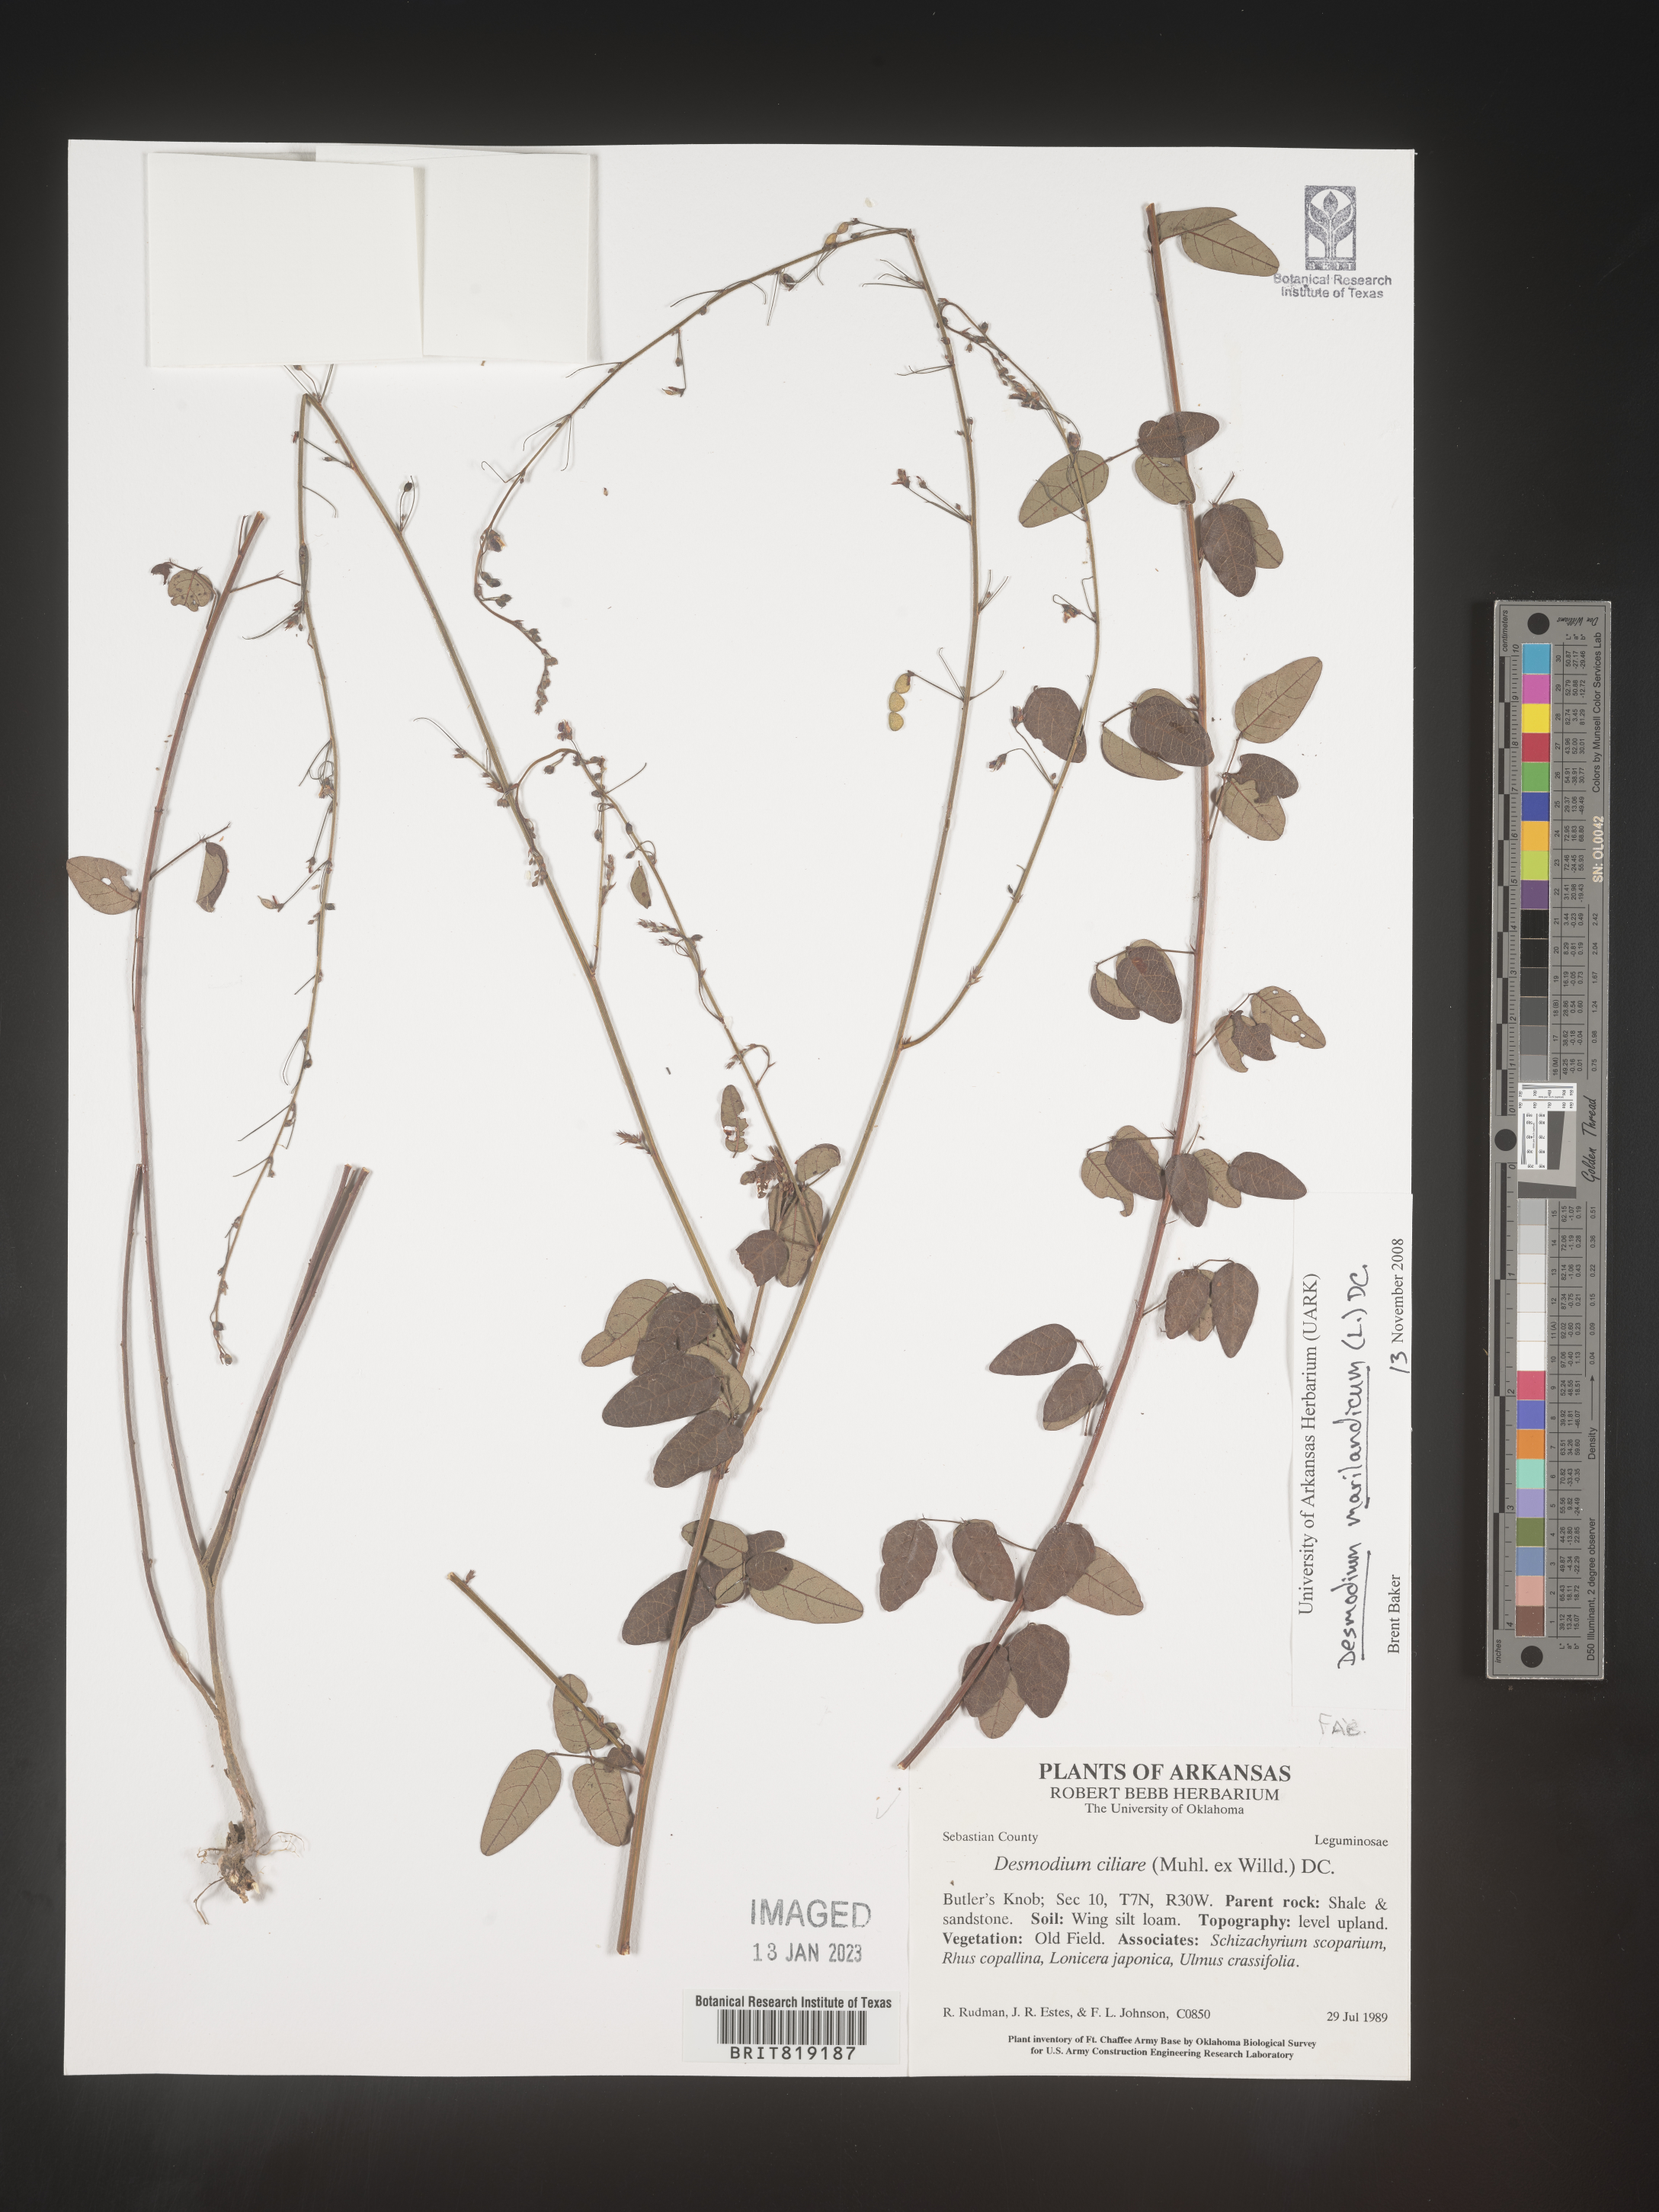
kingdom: Plantae
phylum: Tracheophyta
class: Magnoliopsida
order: Fabales
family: Fabaceae
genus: Desmodium
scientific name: Desmodium marilandicum
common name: Maryland tick-trefoil
